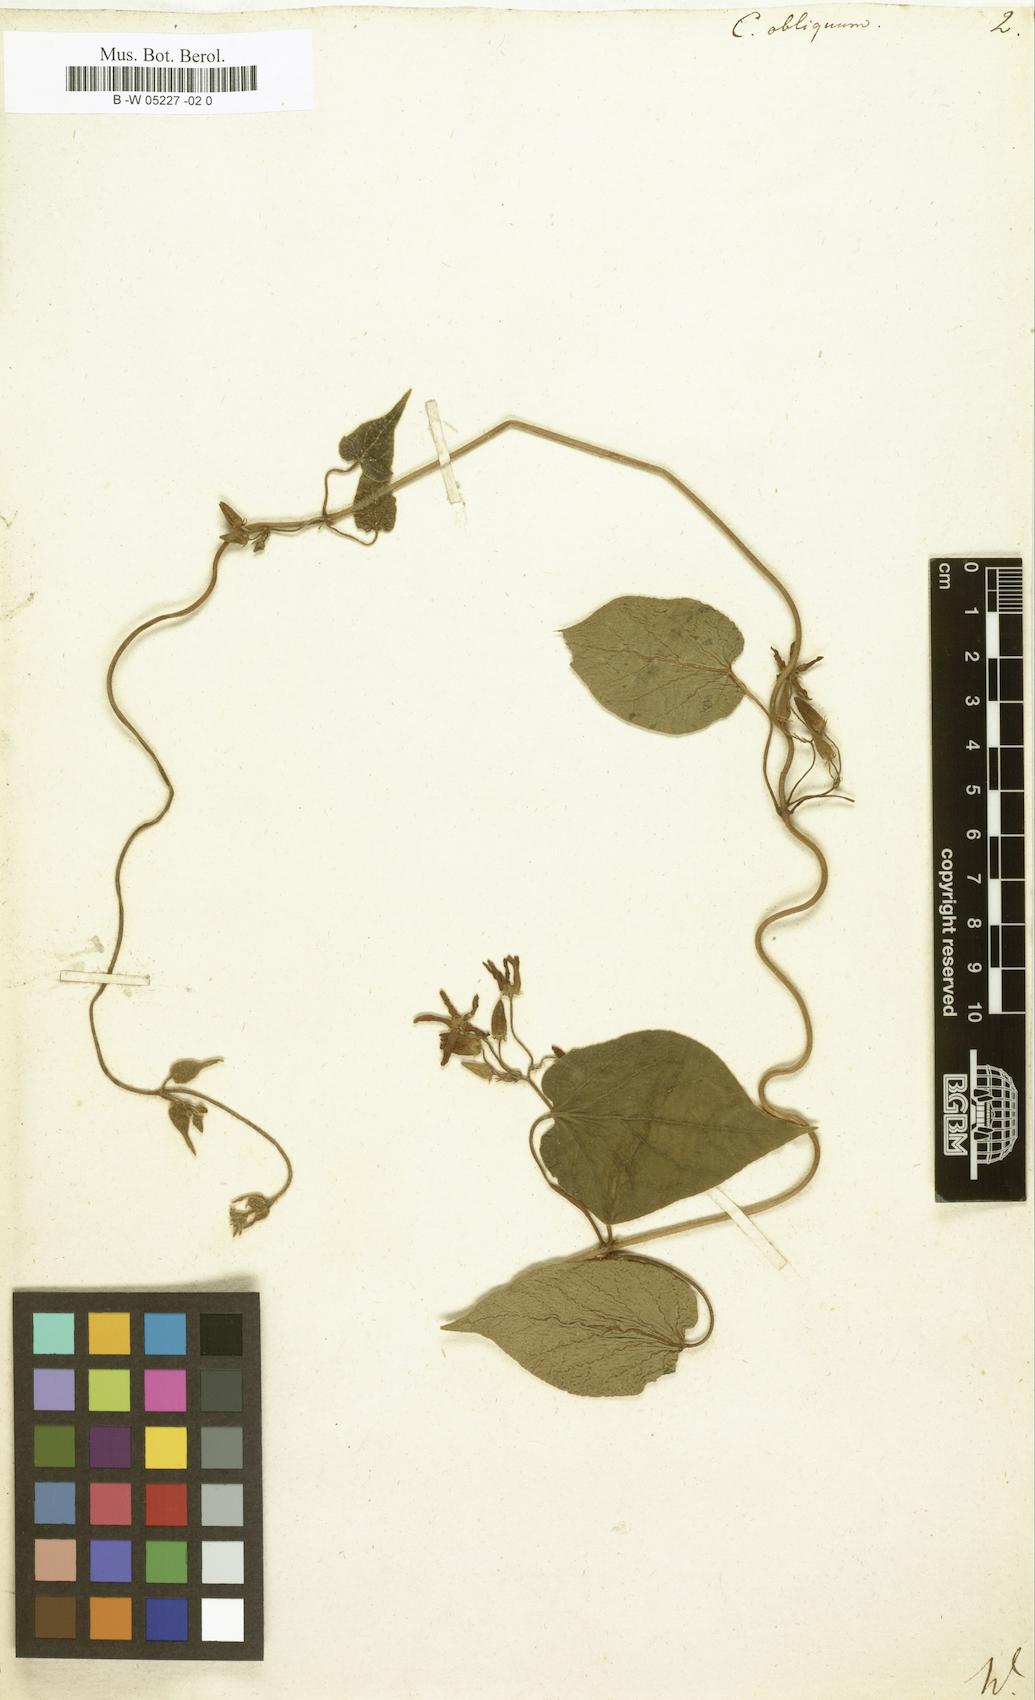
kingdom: Plantae
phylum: Tracheophyta
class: Magnoliopsida
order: Gentianales
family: Apocynaceae
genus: Matelea
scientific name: Matelea obliqua
